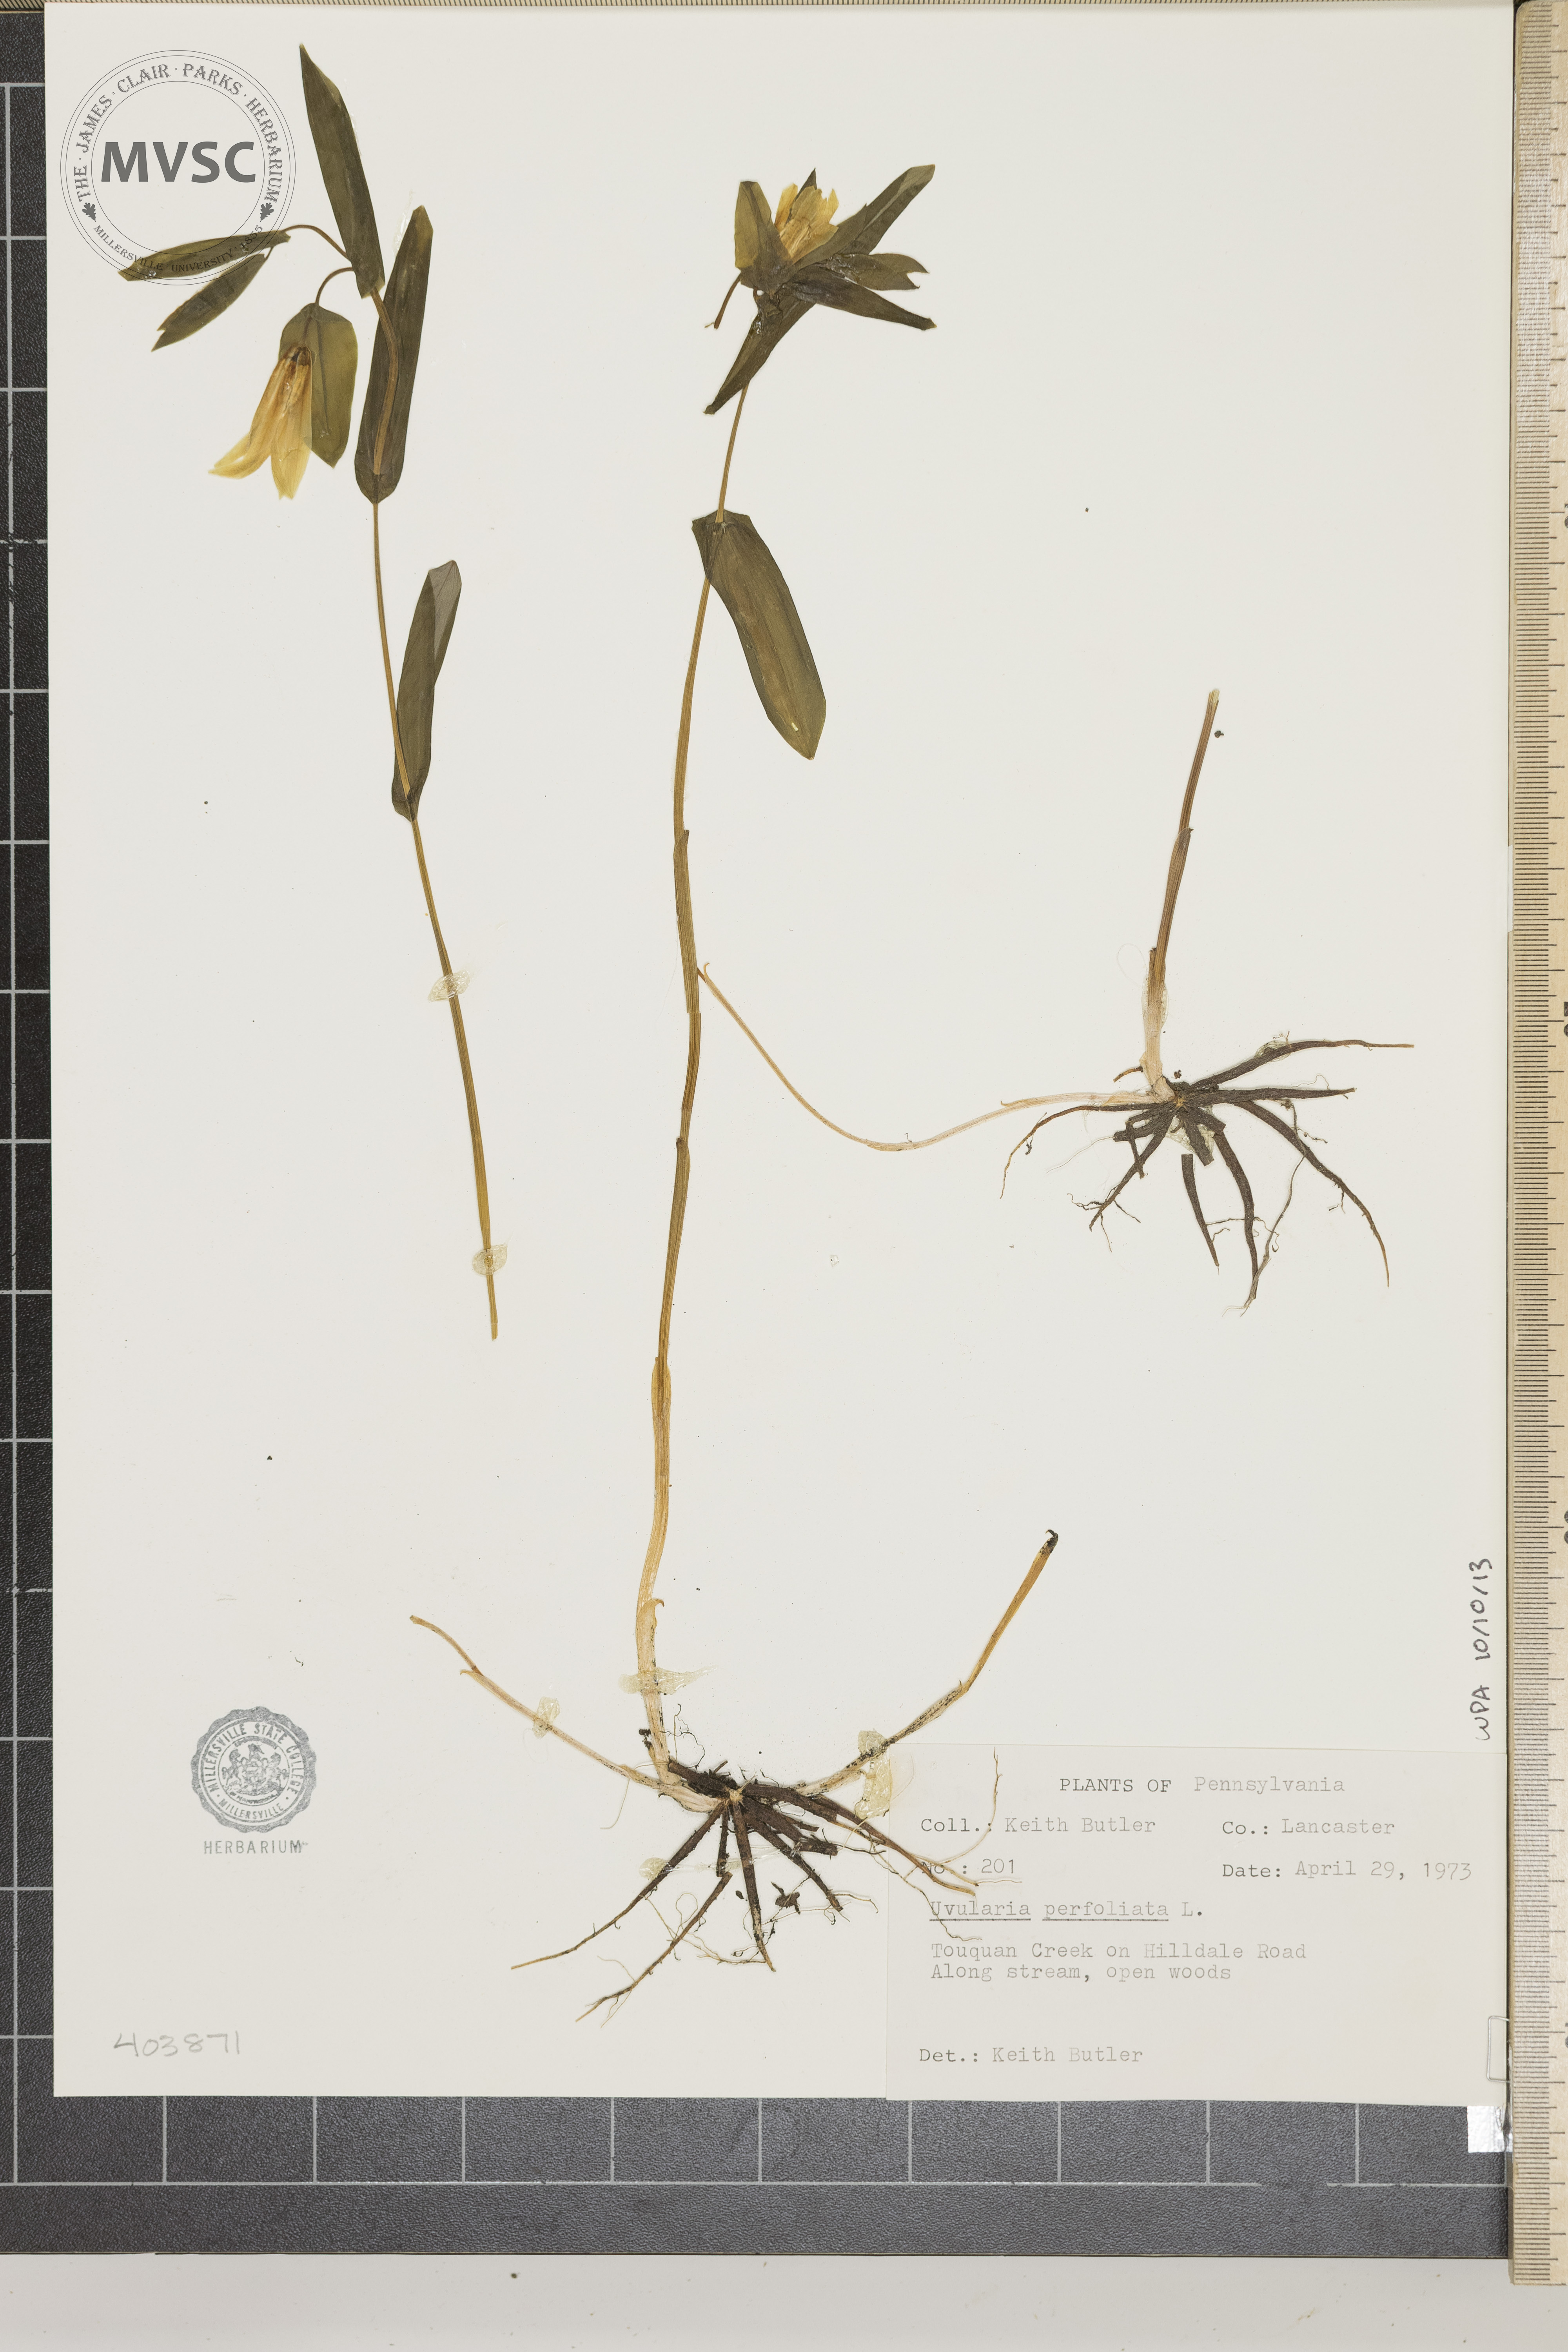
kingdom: Plantae
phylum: Tracheophyta
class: Liliopsida
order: Liliales
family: Colchicaceae
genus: Uvularia
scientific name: Uvularia perfoliata
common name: Perfoliate bellwort
